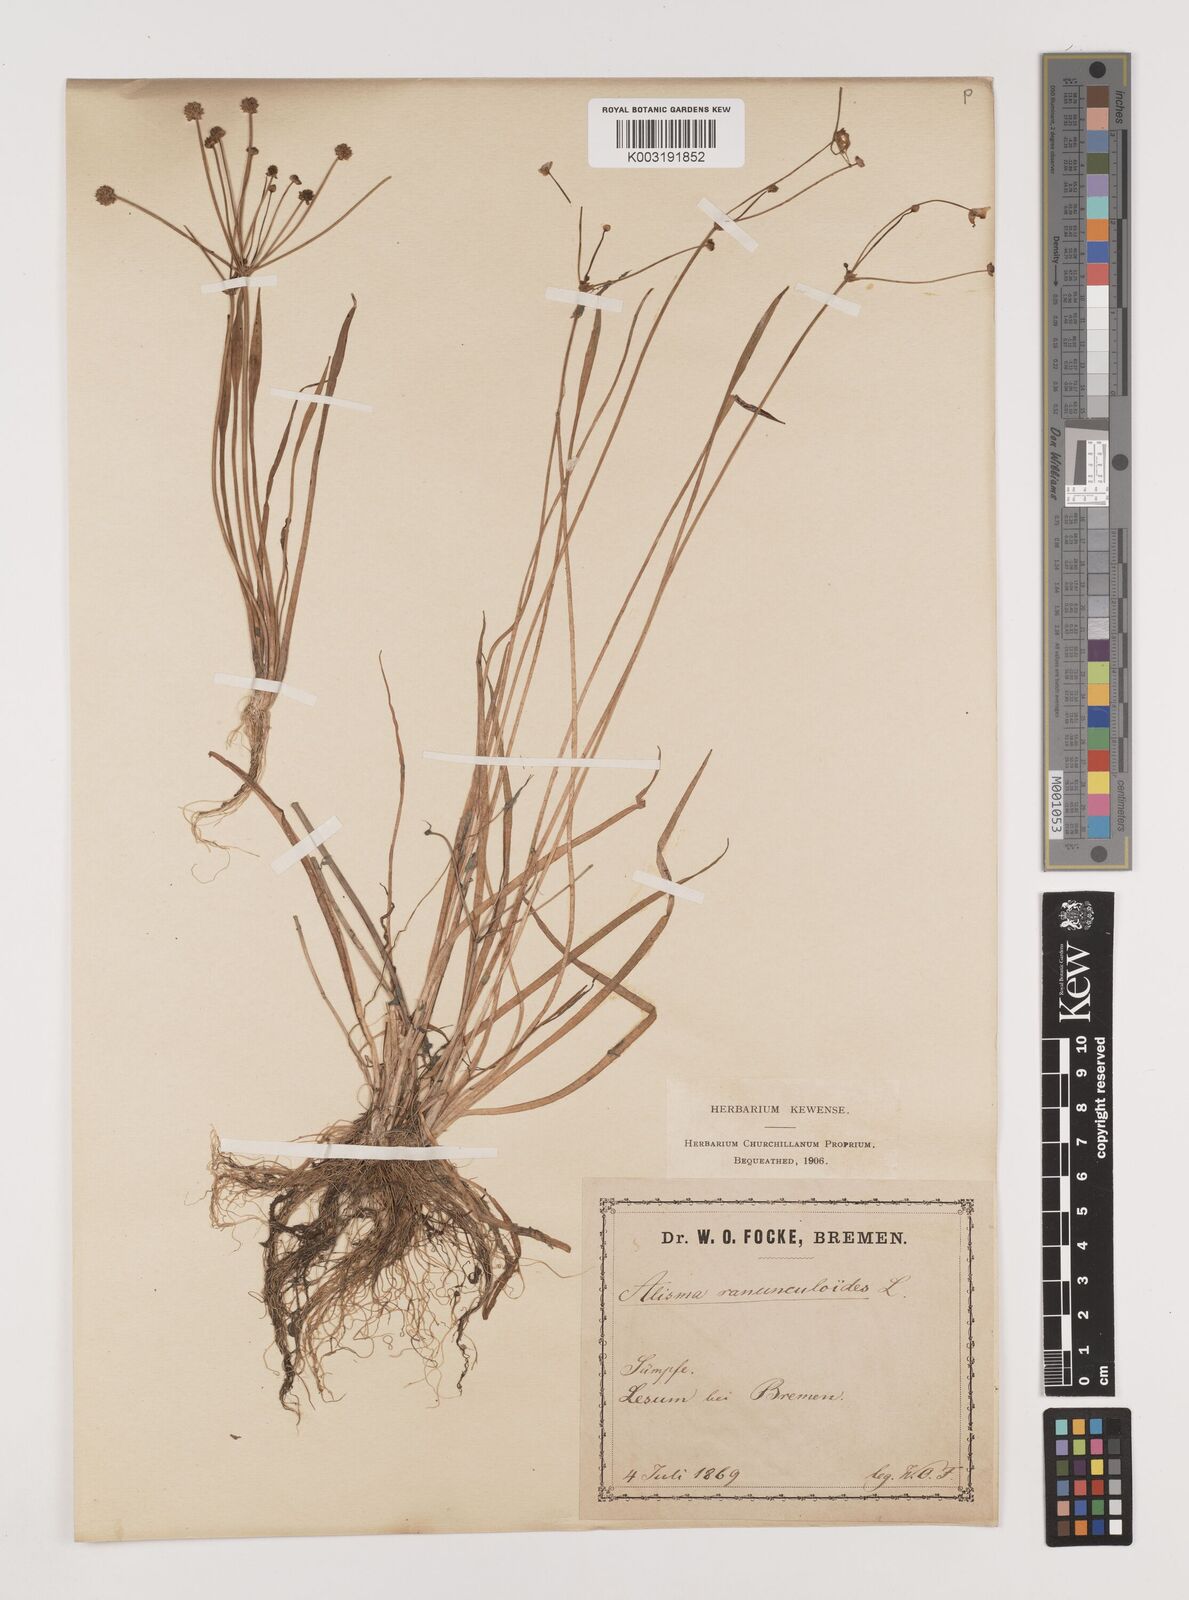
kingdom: Plantae
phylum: Tracheophyta
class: Liliopsida
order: Alismatales
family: Alismataceae
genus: Baldellia
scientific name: Baldellia ranunculoides
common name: Lesser water-plantain
